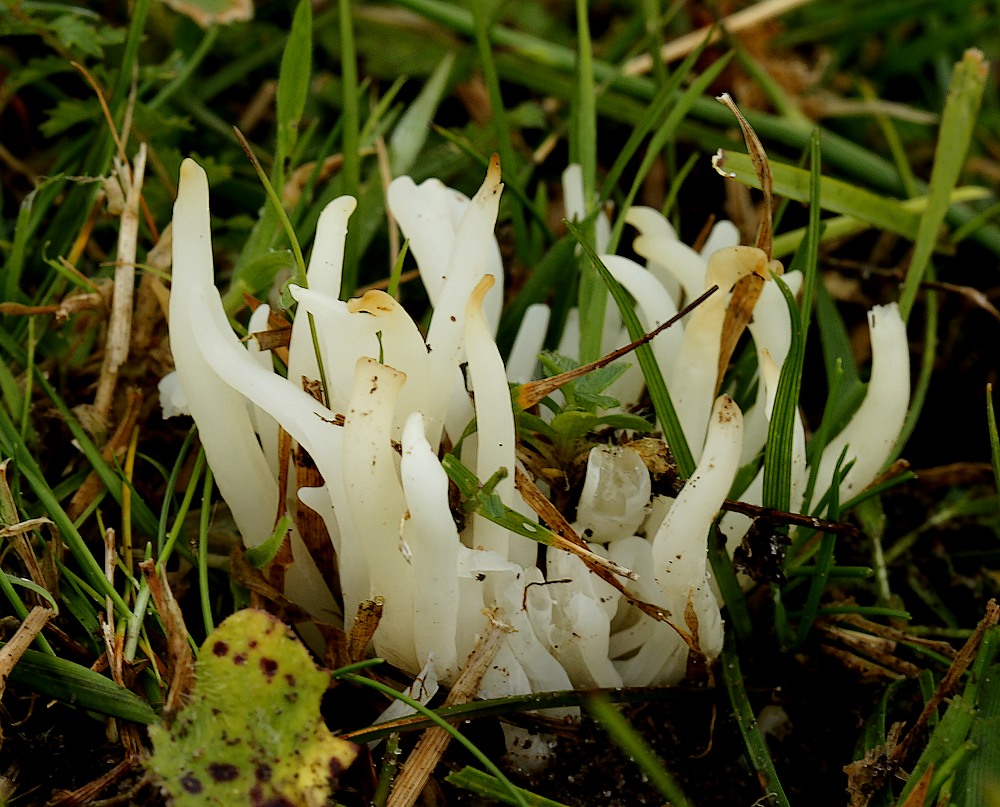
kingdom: Fungi
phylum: Basidiomycota
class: Agaricomycetes
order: Agaricales
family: Clavariaceae
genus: Clavaria
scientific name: Clavaria
